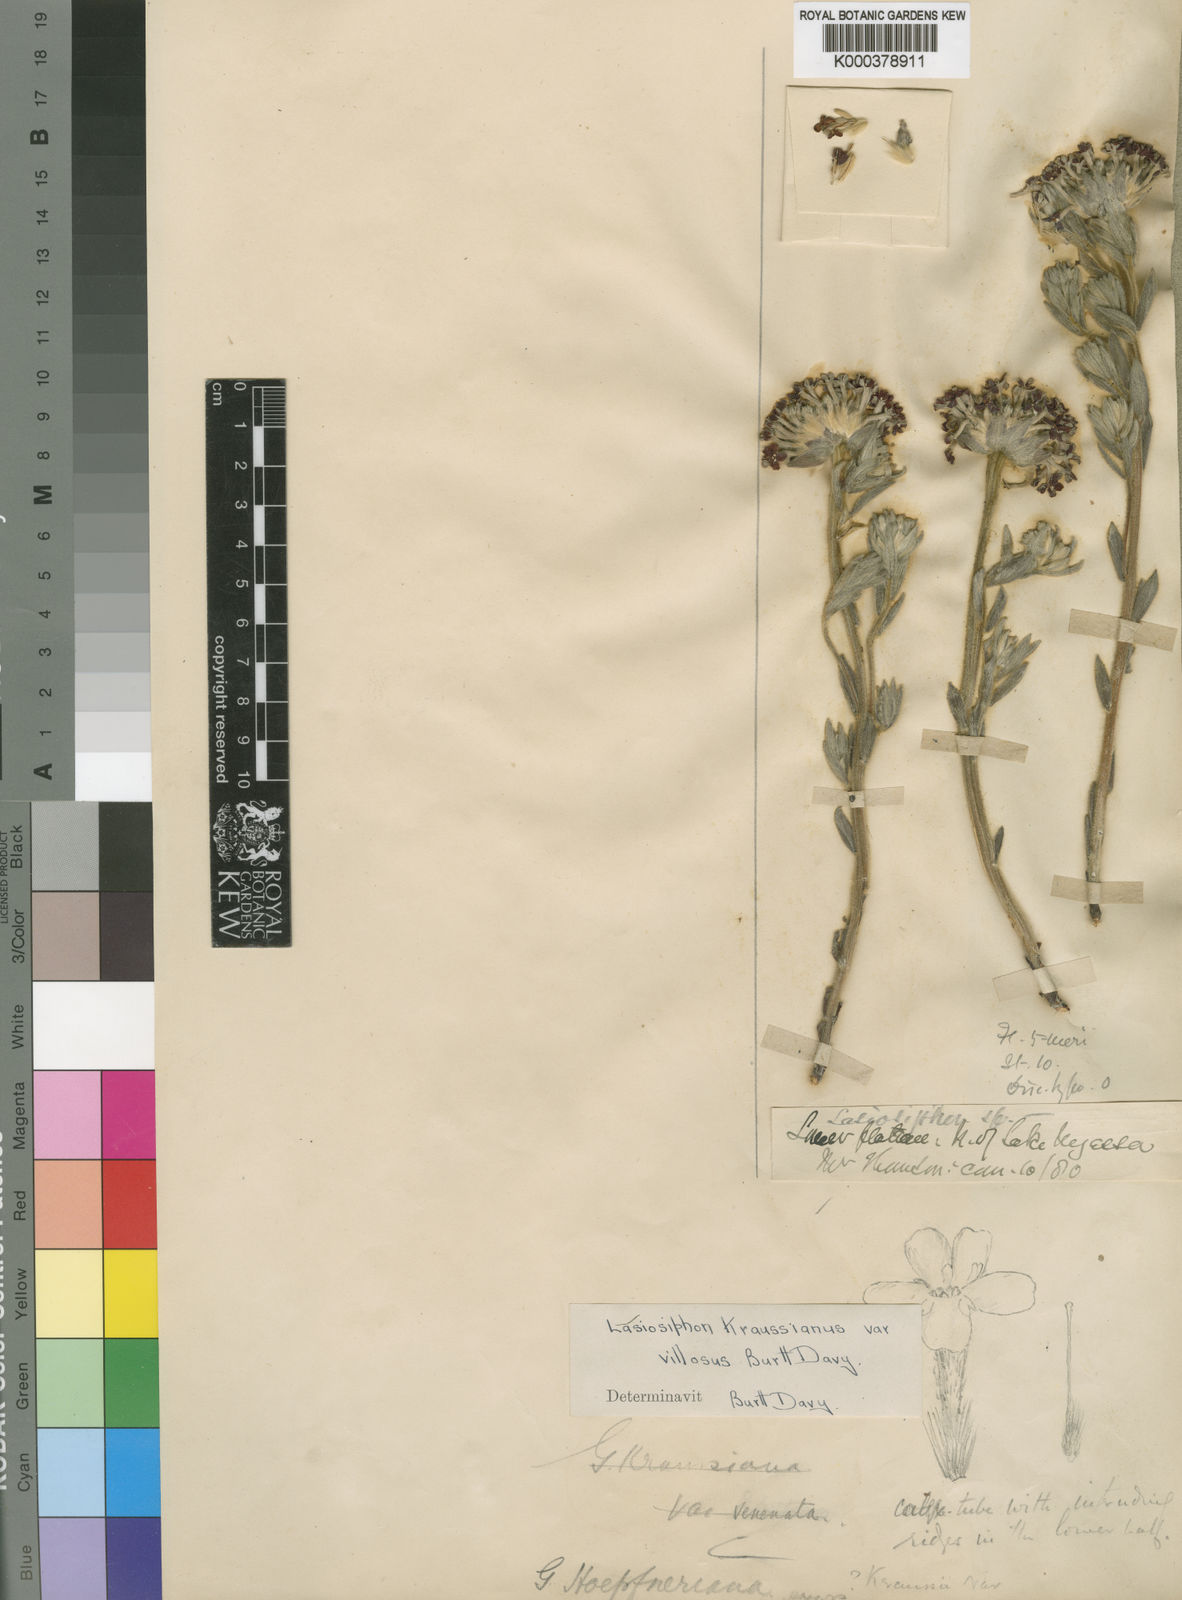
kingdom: Plantae
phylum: Tracheophyta
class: Magnoliopsida
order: Malvales
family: Thymelaeaceae
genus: Gnidia
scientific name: Gnidia kraussiana
